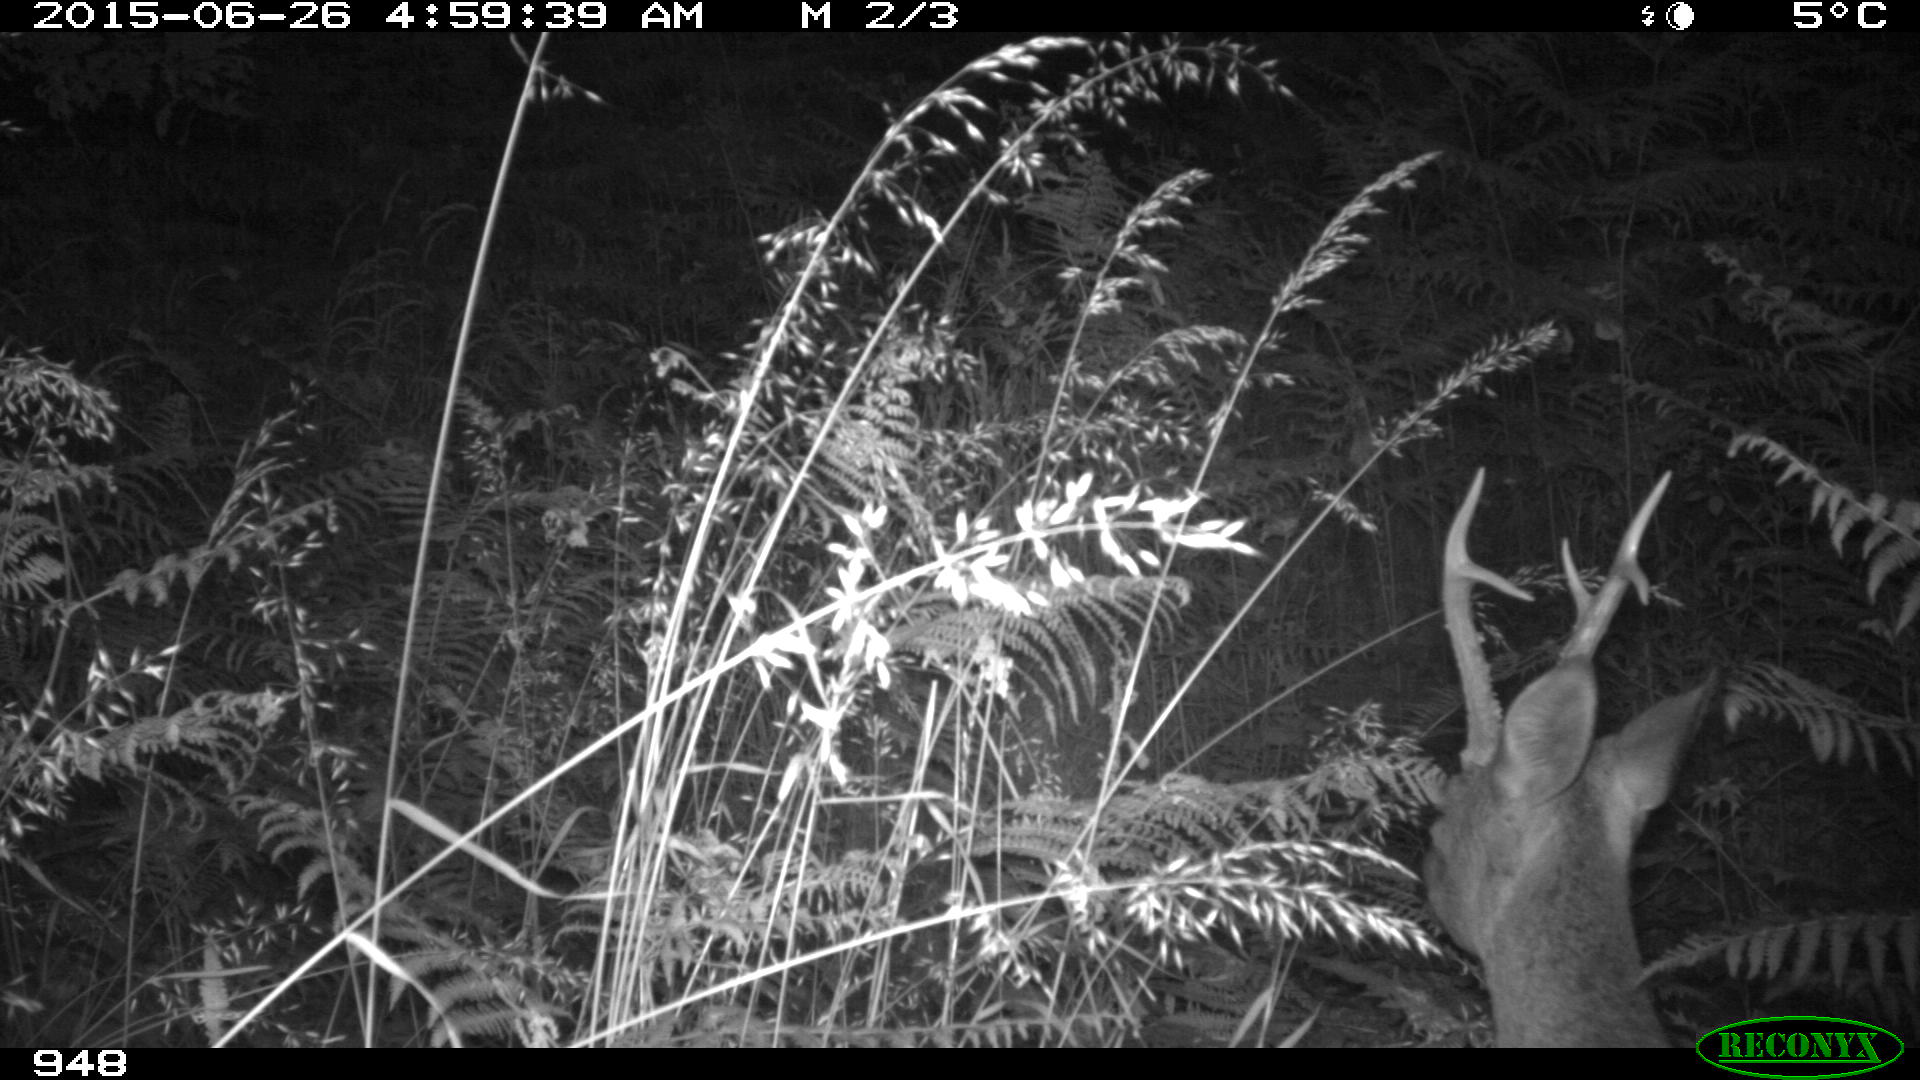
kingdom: Animalia
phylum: Chordata
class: Mammalia
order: Artiodactyla
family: Cervidae
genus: Capreolus
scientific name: Capreolus capreolus
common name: Western roe deer
